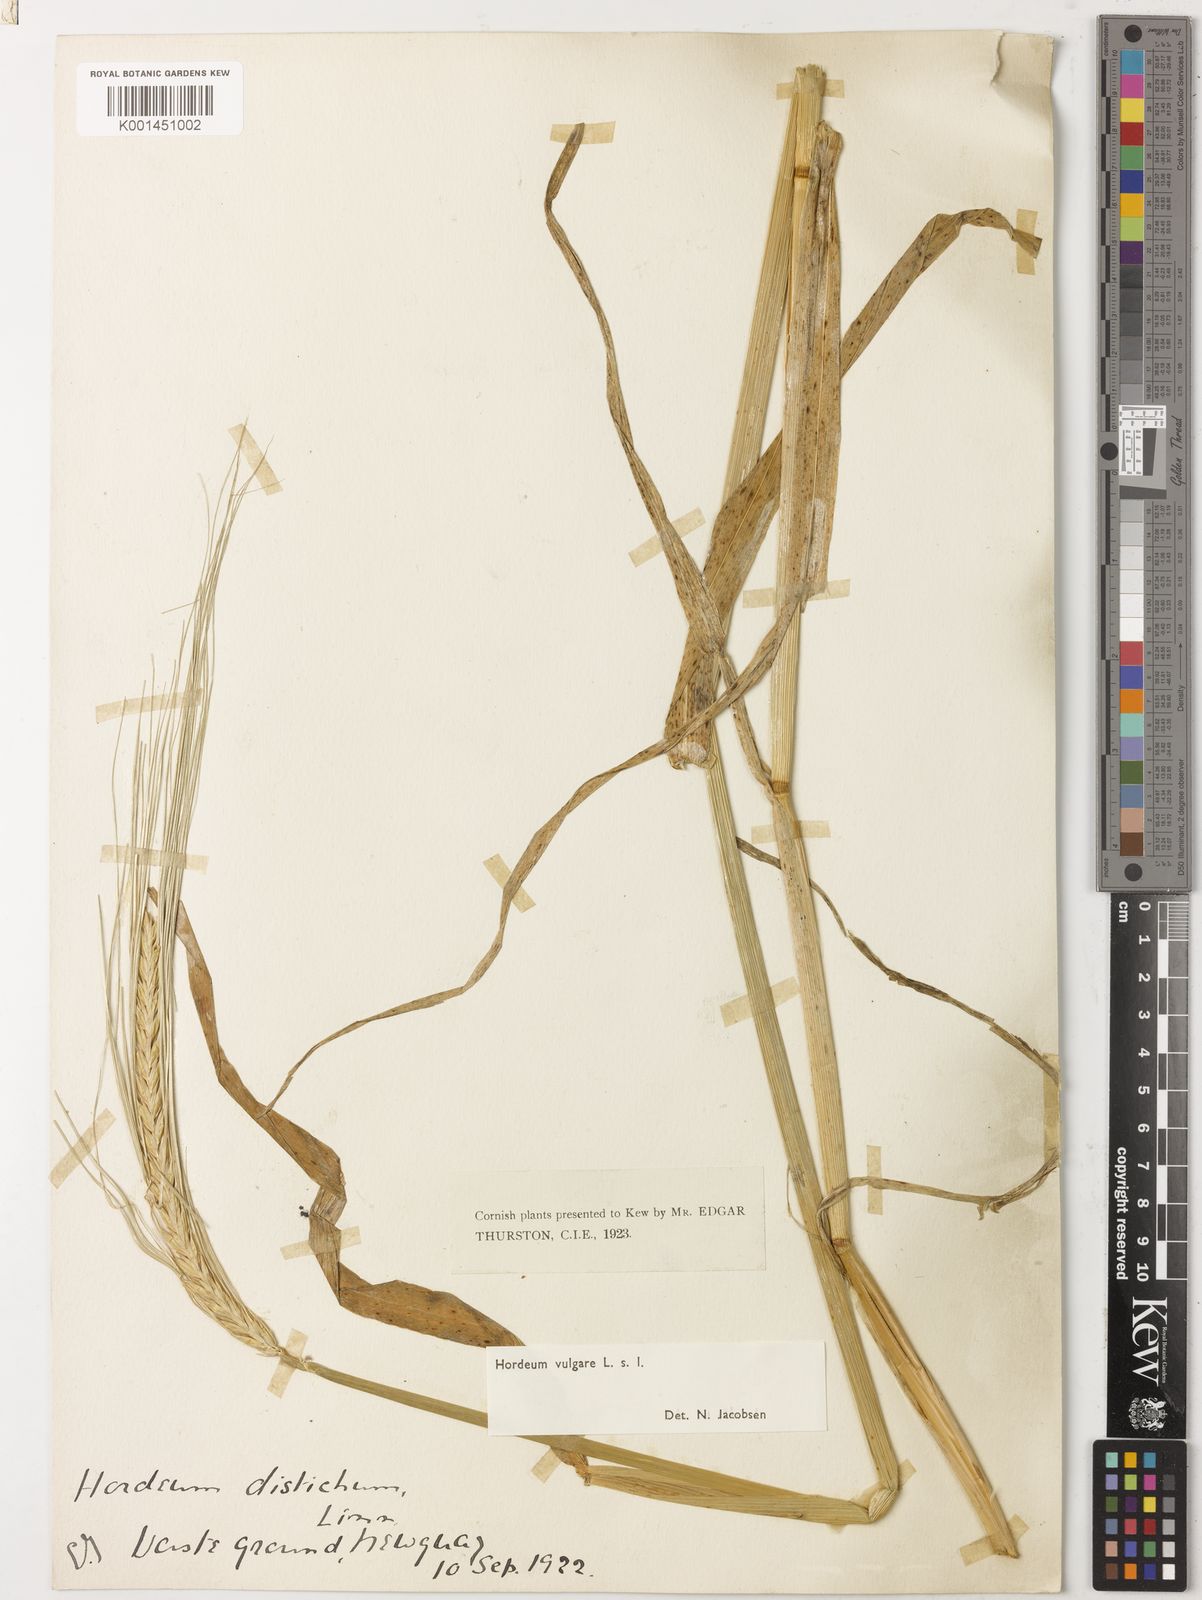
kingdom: Plantae
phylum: Tracheophyta
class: Liliopsida
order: Poales
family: Poaceae
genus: Hordeum
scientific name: Hordeum vulgare
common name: Common barley
